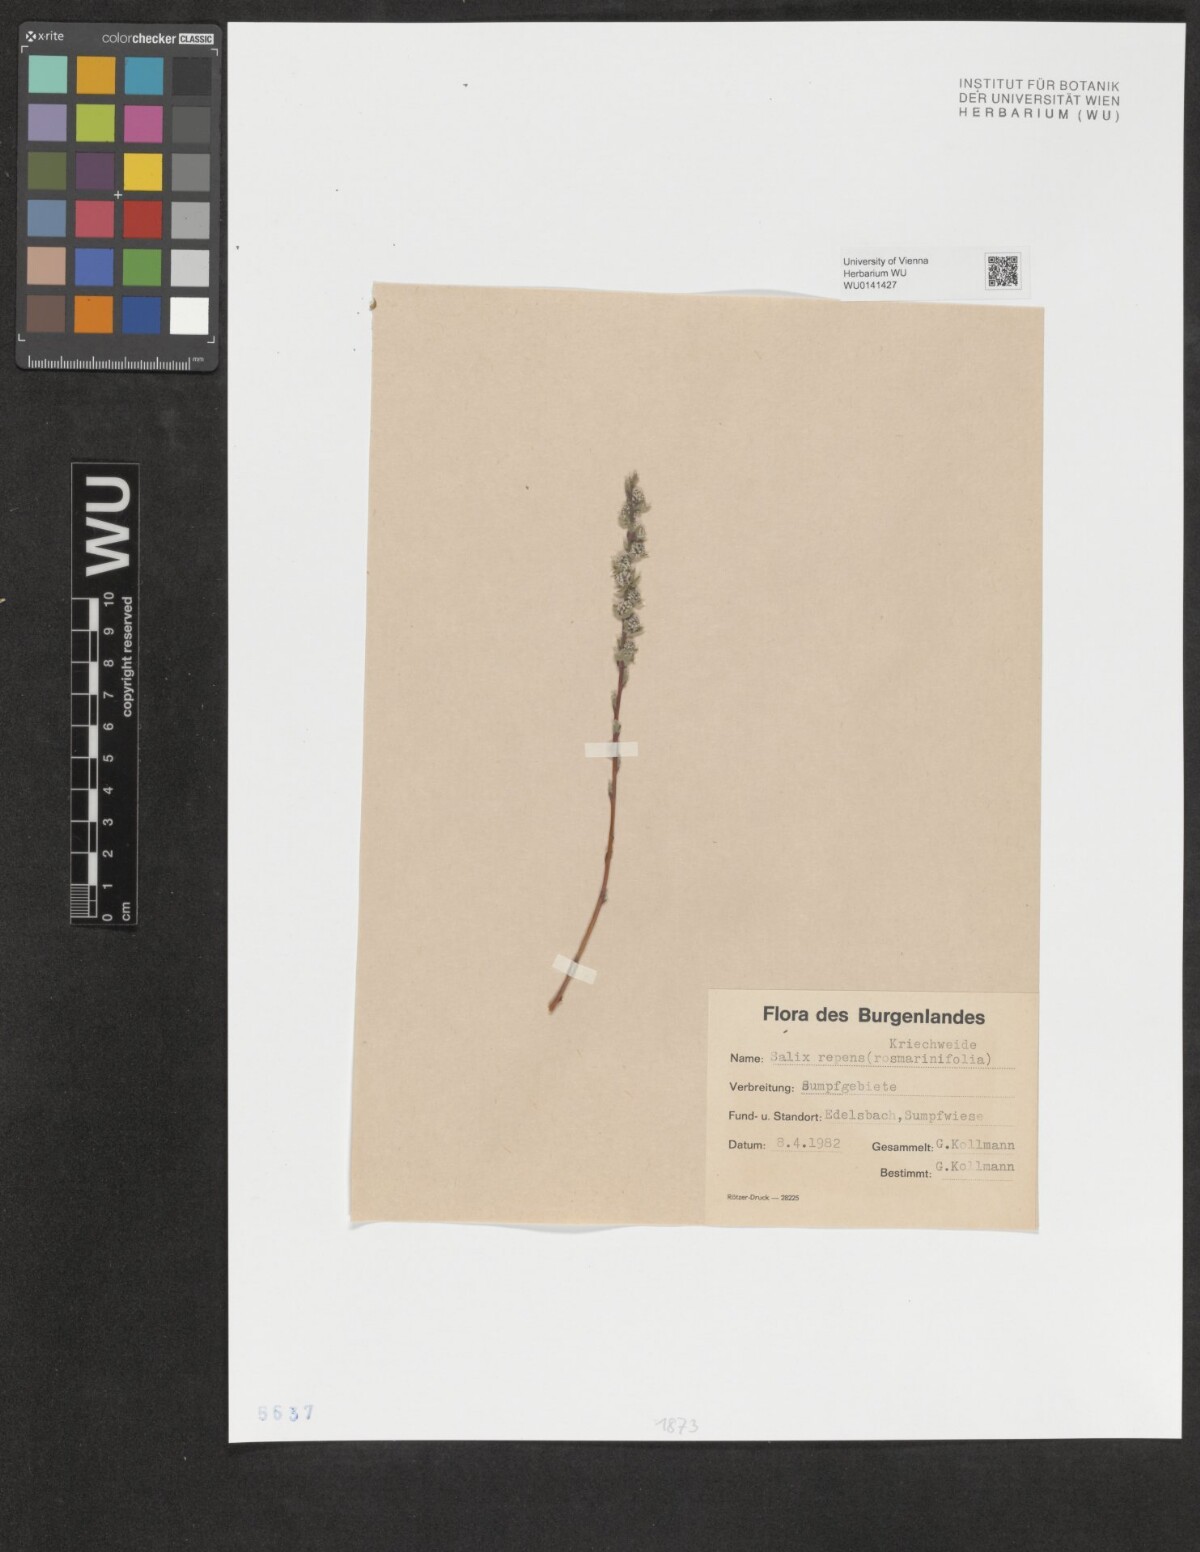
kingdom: Plantae
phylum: Tracheophyta
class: Magnoliopsida
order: Malpighiales
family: Salicaceae
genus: Salix
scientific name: Salix repens
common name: Creeping willow
